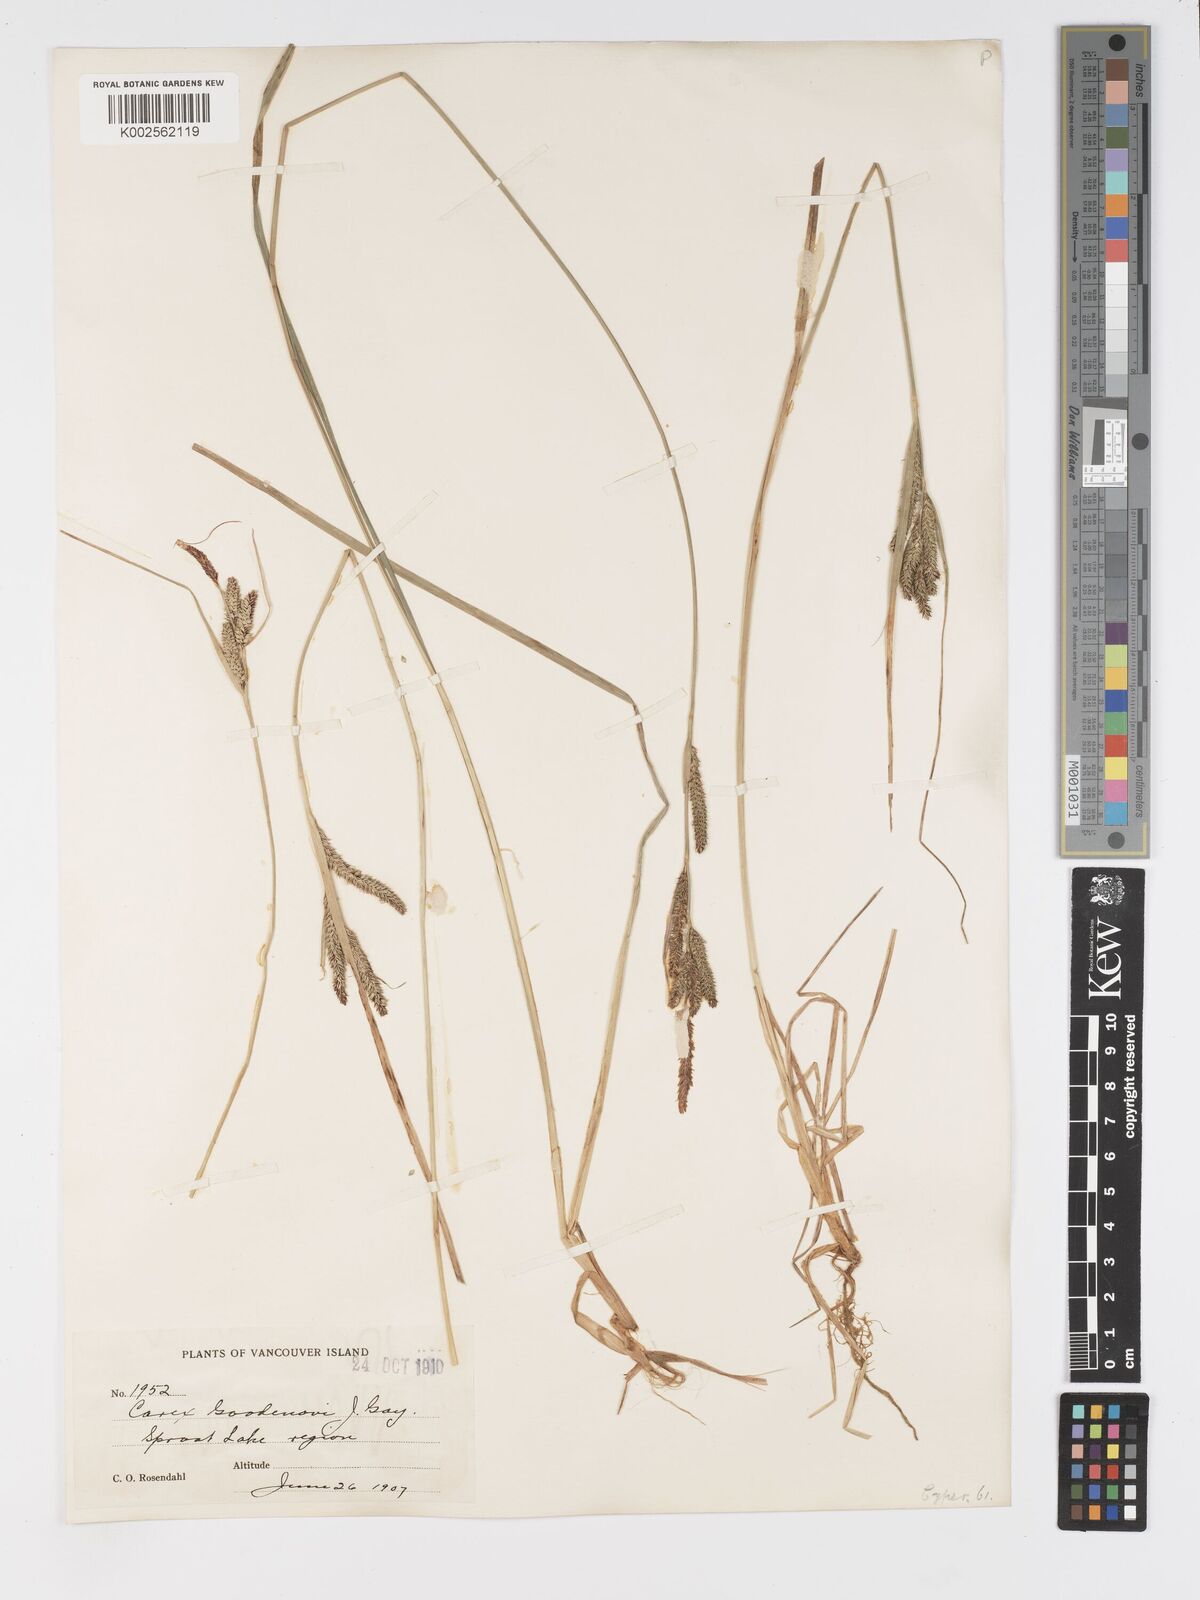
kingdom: Plantae
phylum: Tracheophyta
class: Liliopsida
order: Poales
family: Cyperaceae
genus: Carex
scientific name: Carex kelloggii
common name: Kellogg's sedge
